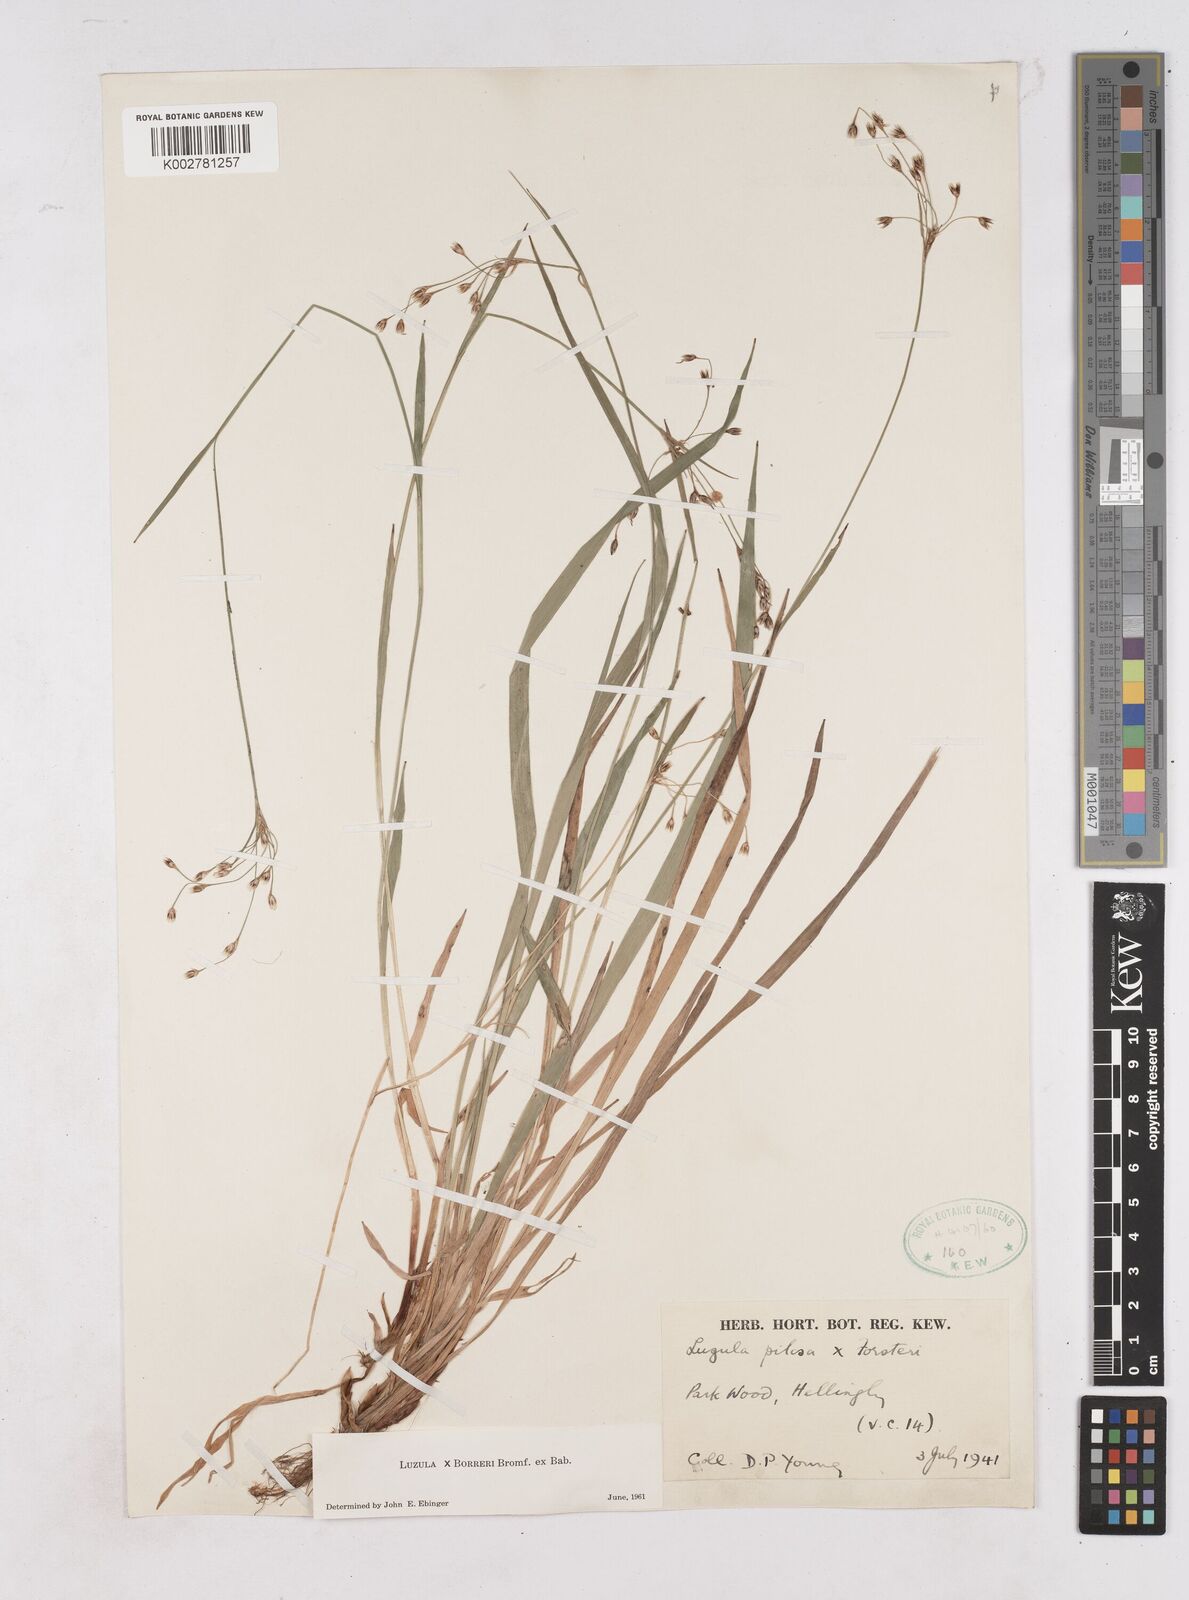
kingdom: Plantae
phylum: Tracheophyta
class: Liliopsida
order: Poales
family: Juncaceae
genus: Luzula
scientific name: Luzula forsteri
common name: Southern wood-rush
